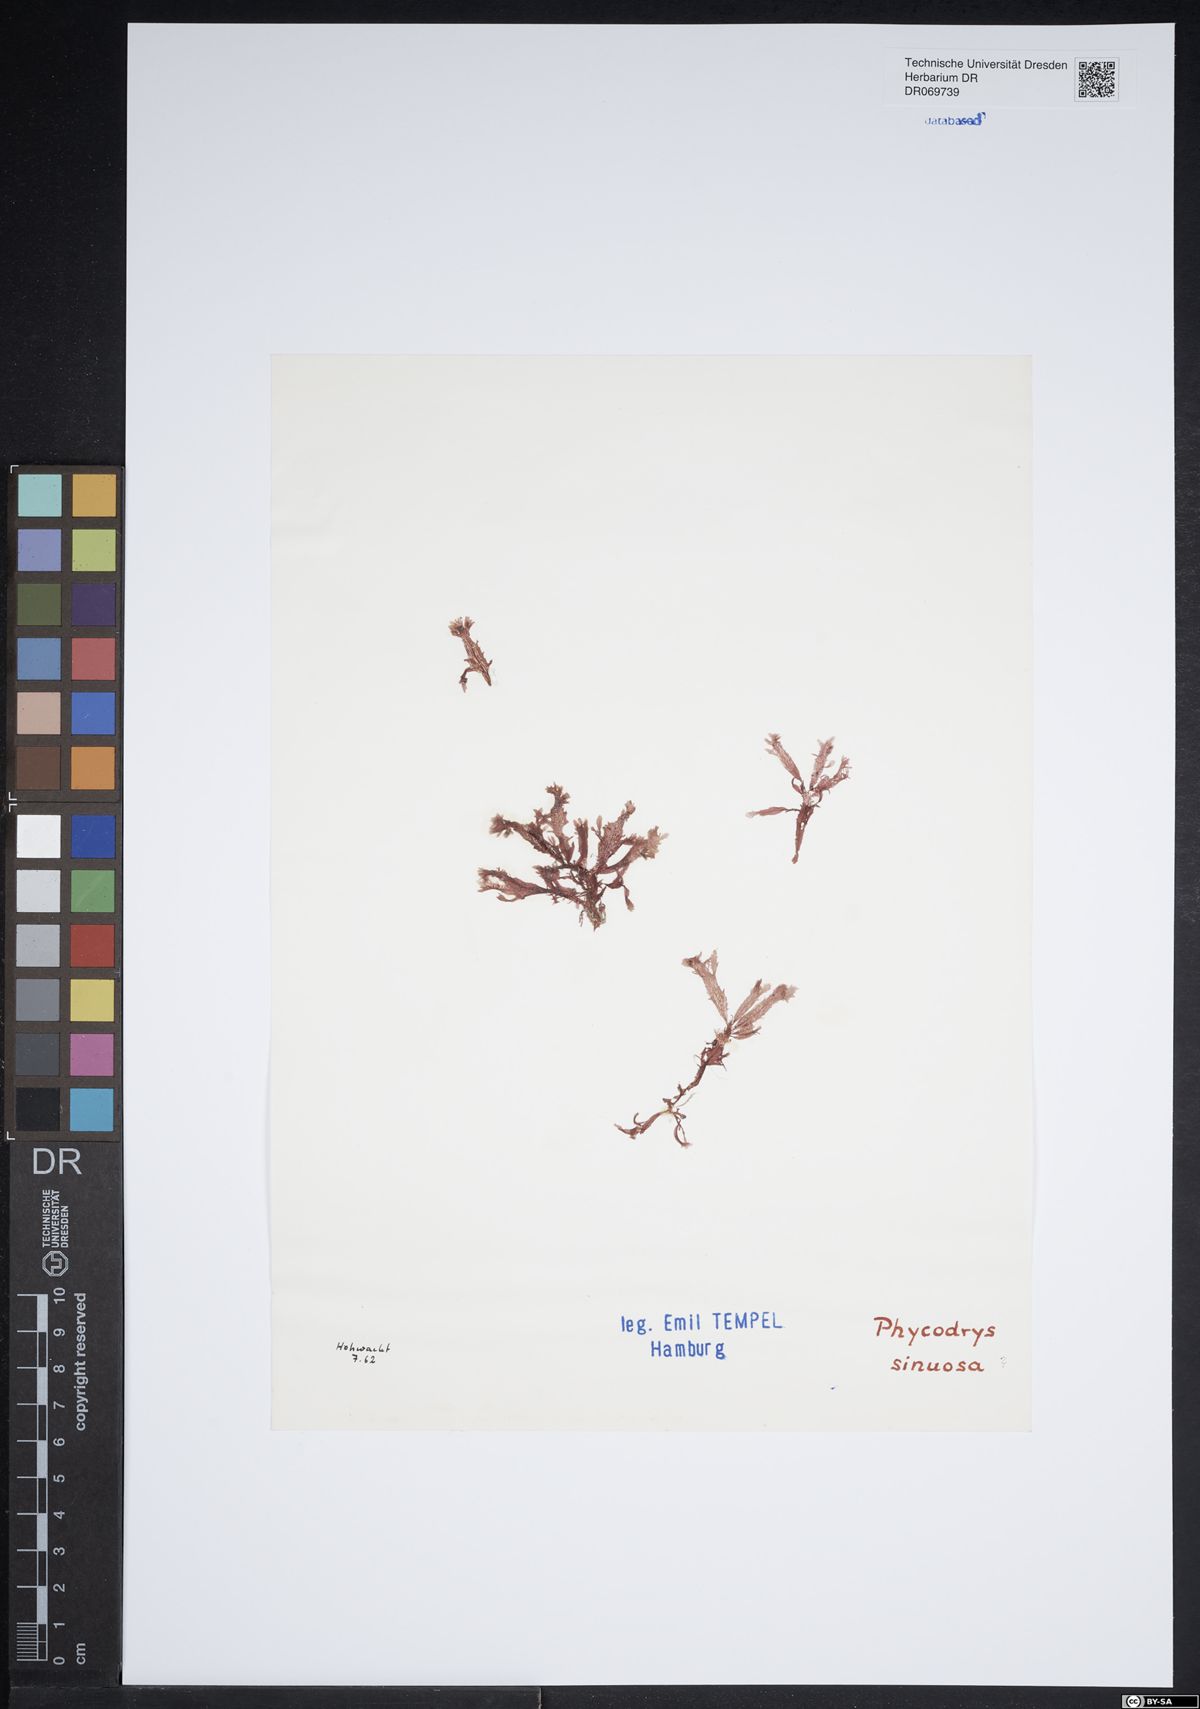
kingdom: Plantae
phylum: Rhodophyta
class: Florideophyceae
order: Ceramiales
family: Delesseriaceae
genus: Phycodrys
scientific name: Phycodrys rubens
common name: Sea oak
